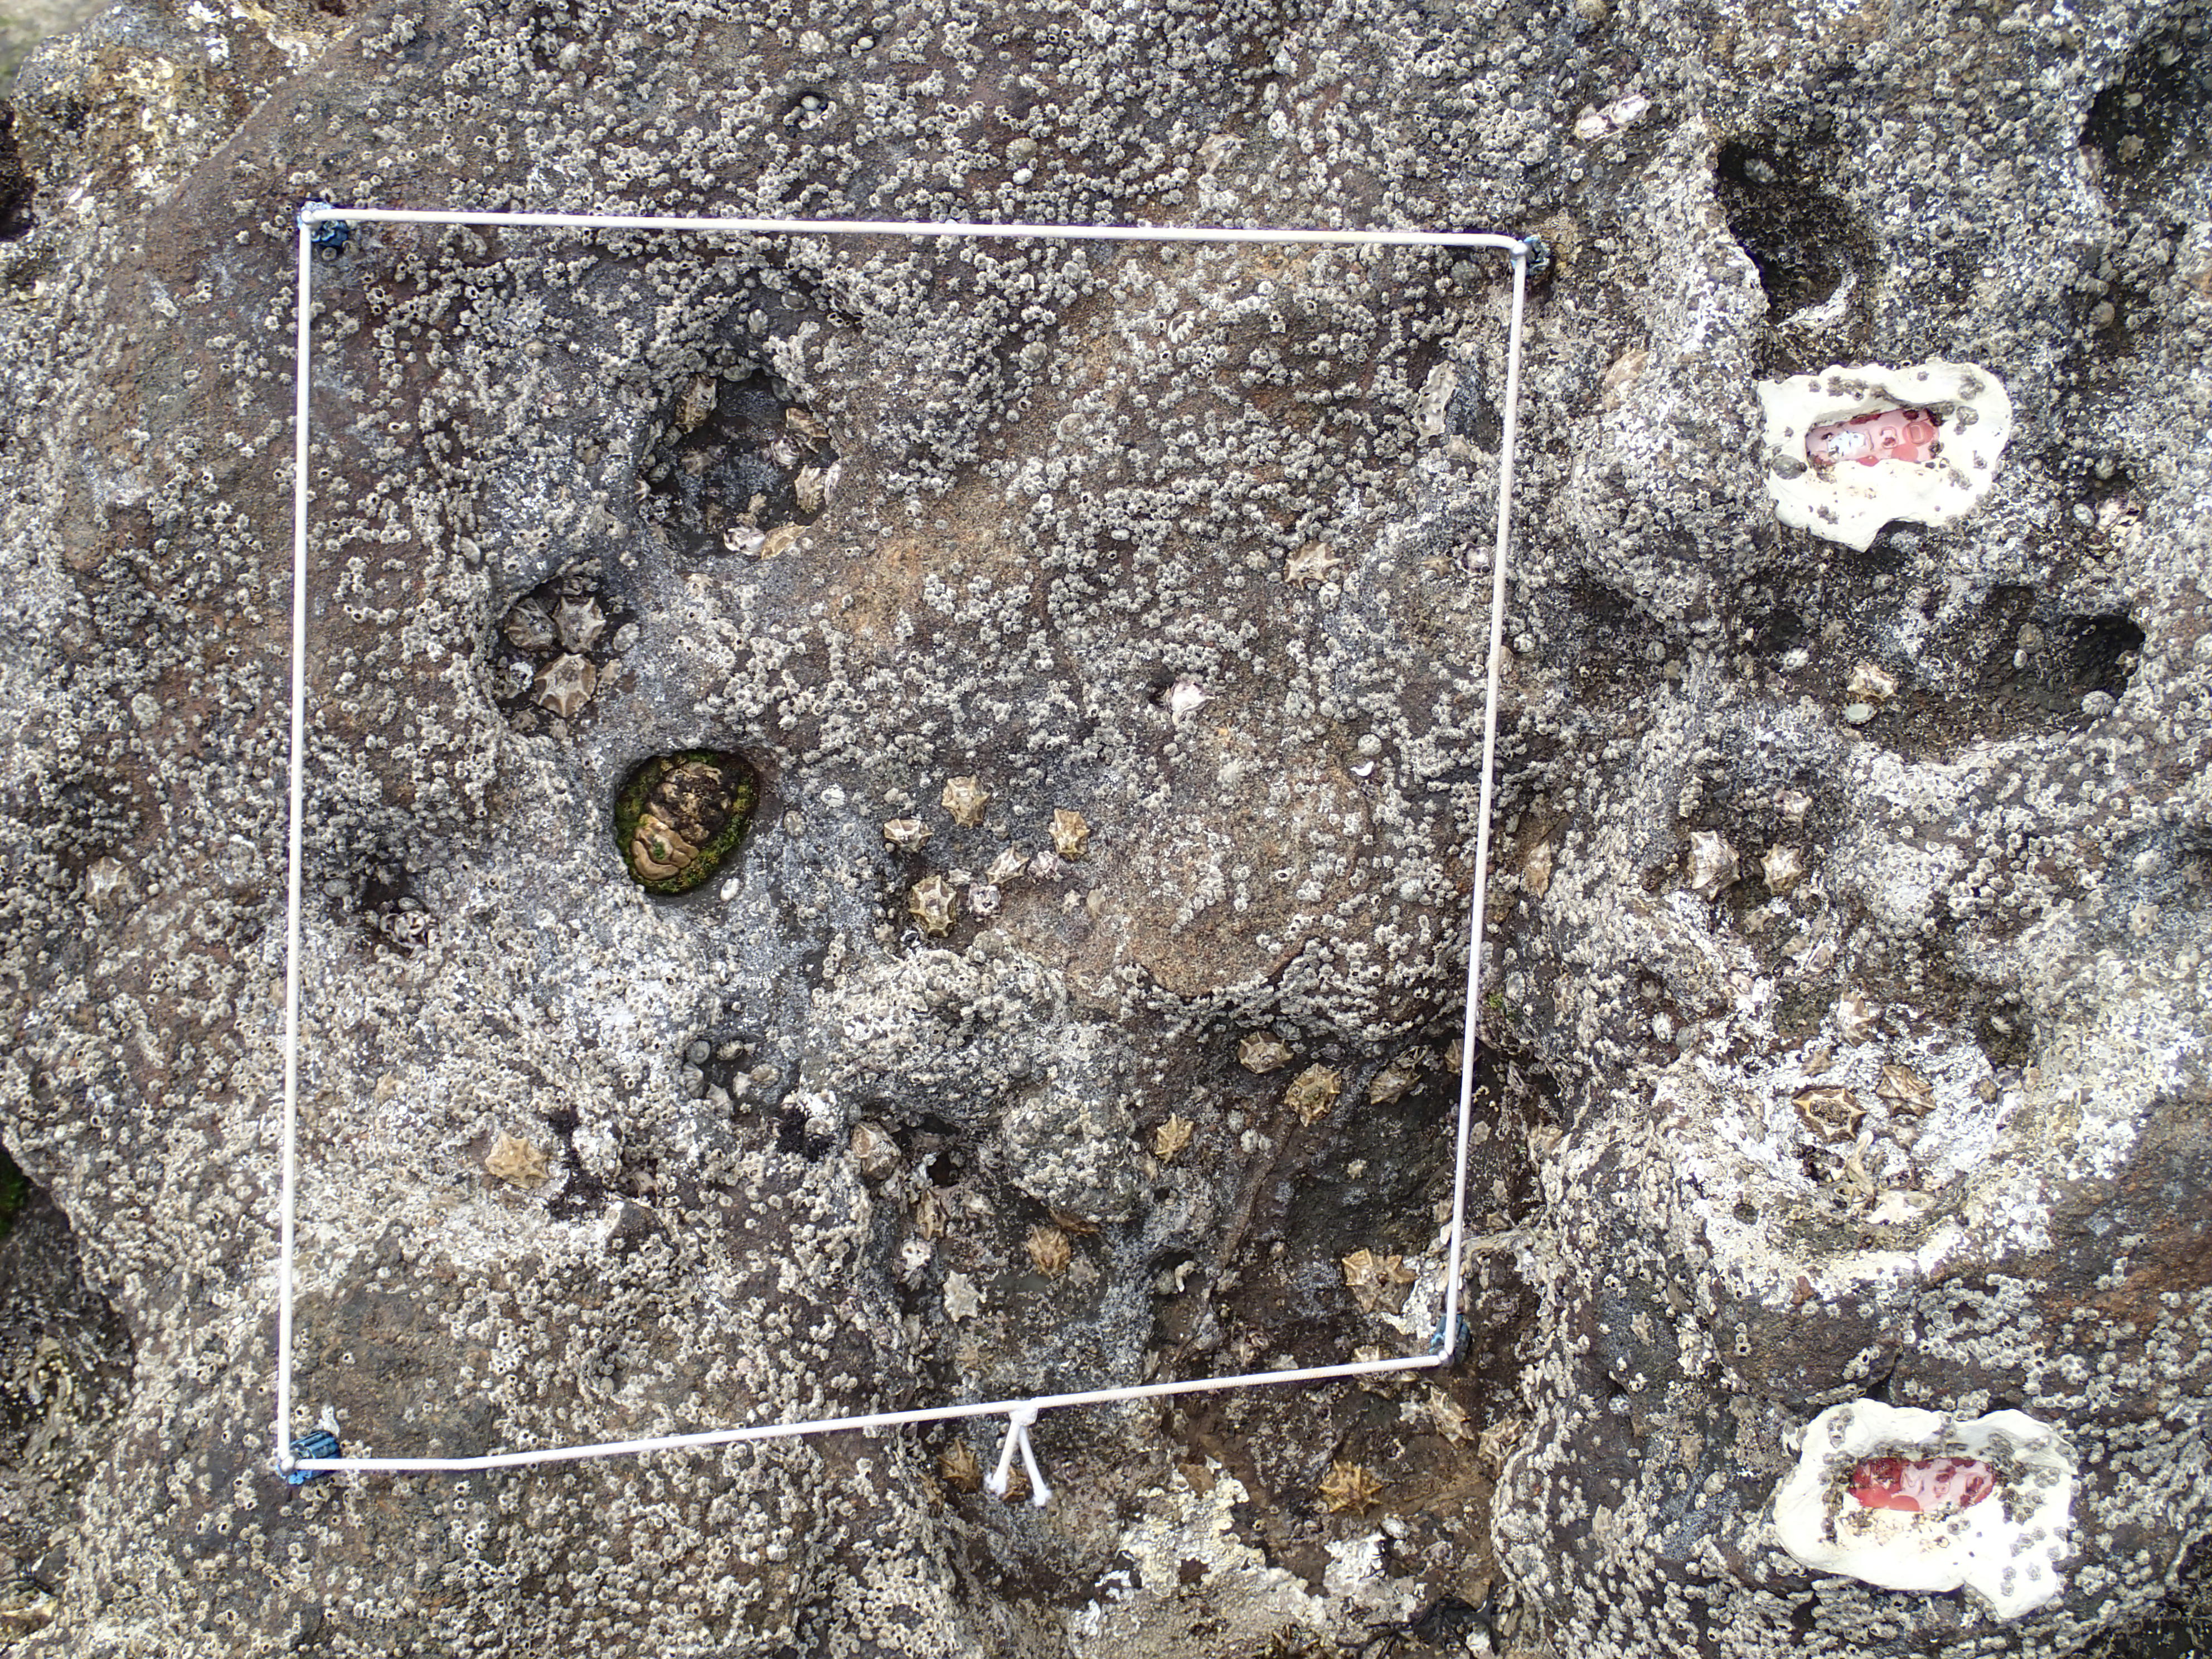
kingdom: Animalia
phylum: Arthropoda
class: Maxillopoda
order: Sessilia
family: Chthamalidae
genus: Chthamalus
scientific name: Chthamalus challengeri
